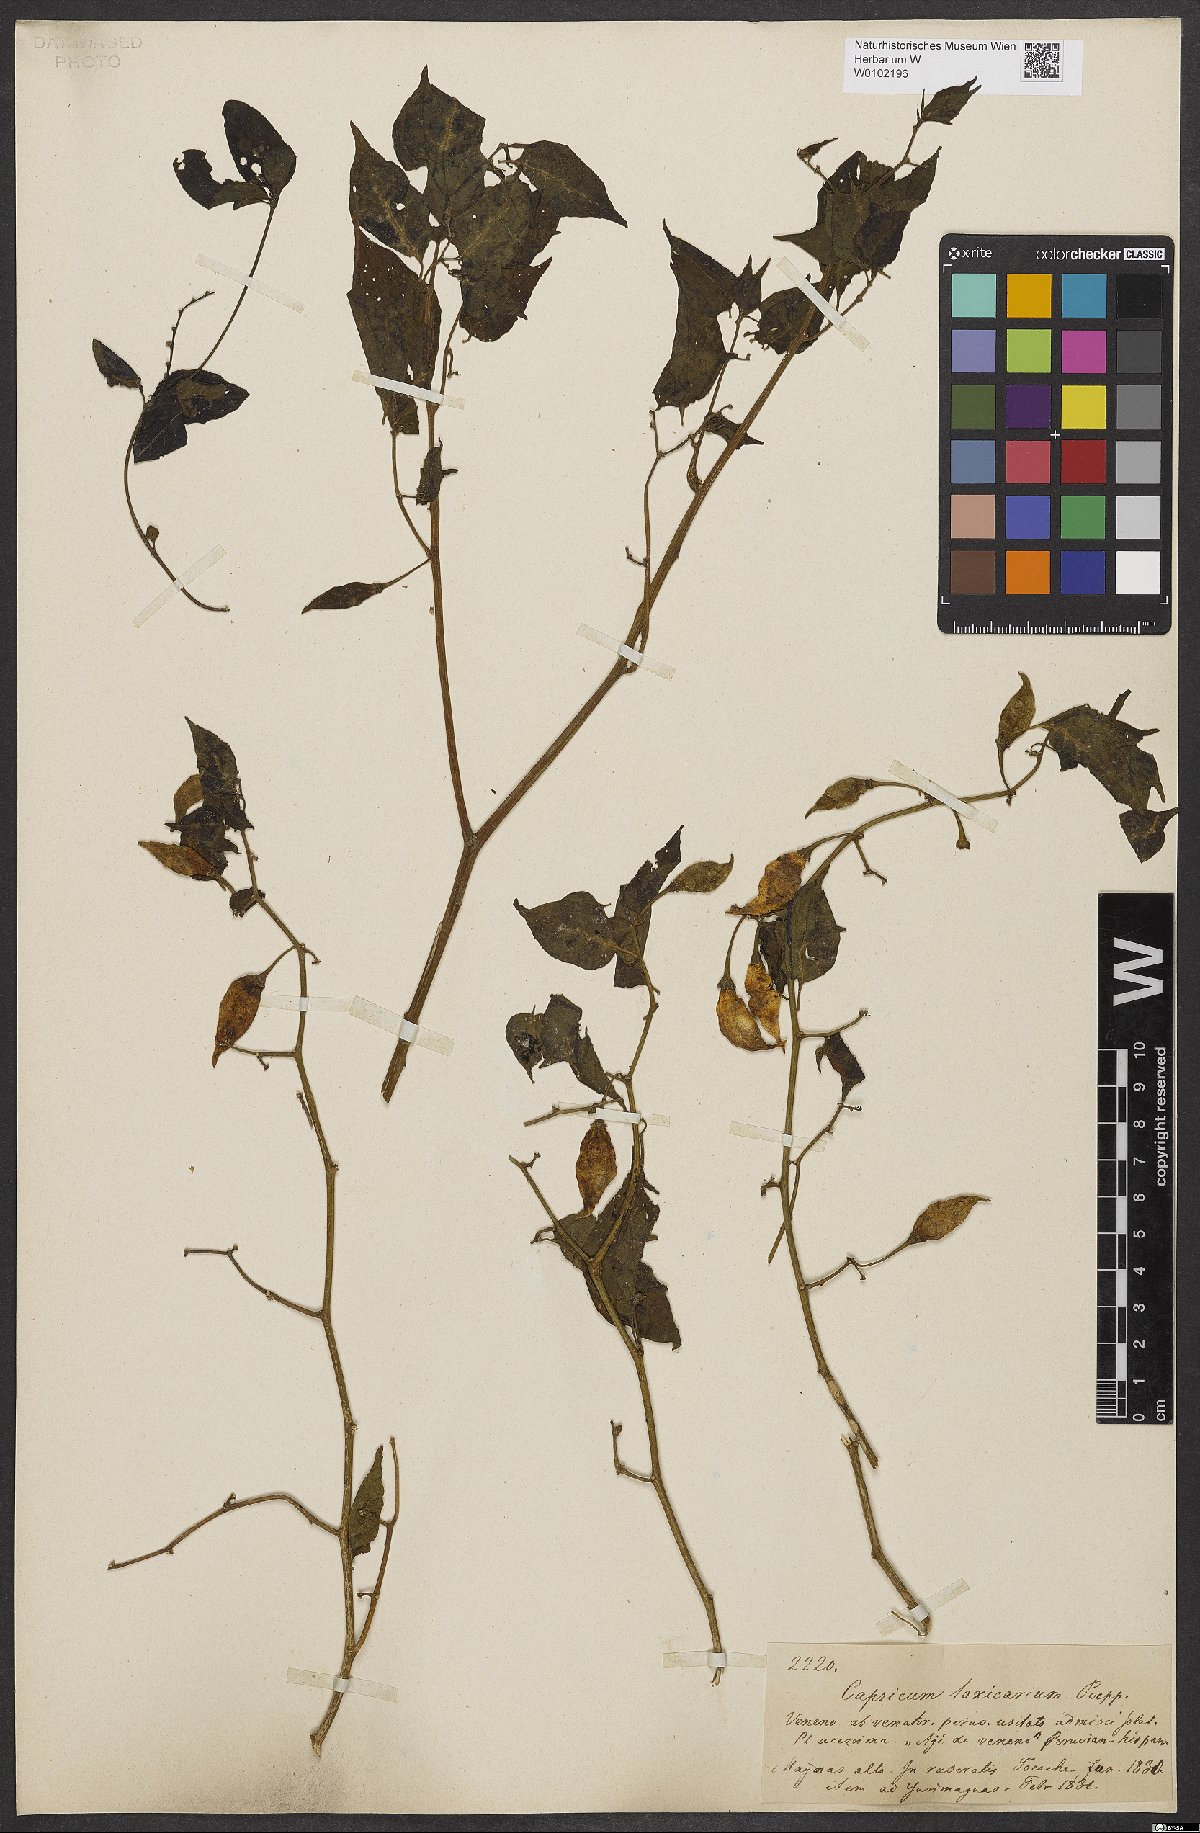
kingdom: Plantae
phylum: Tracheophyta
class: Magnoliopsida
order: Solanales
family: Solanaceae
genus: Capsicum
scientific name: Capsicum chinense
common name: Yellow squash pepper
